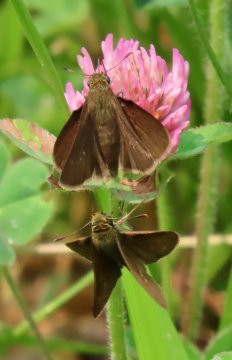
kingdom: Animalia
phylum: Arthropoda
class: Insecta
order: Lepidoptera
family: Hesperiidae
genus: Euphyes
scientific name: Euphyes vestris
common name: Dun Skipper
